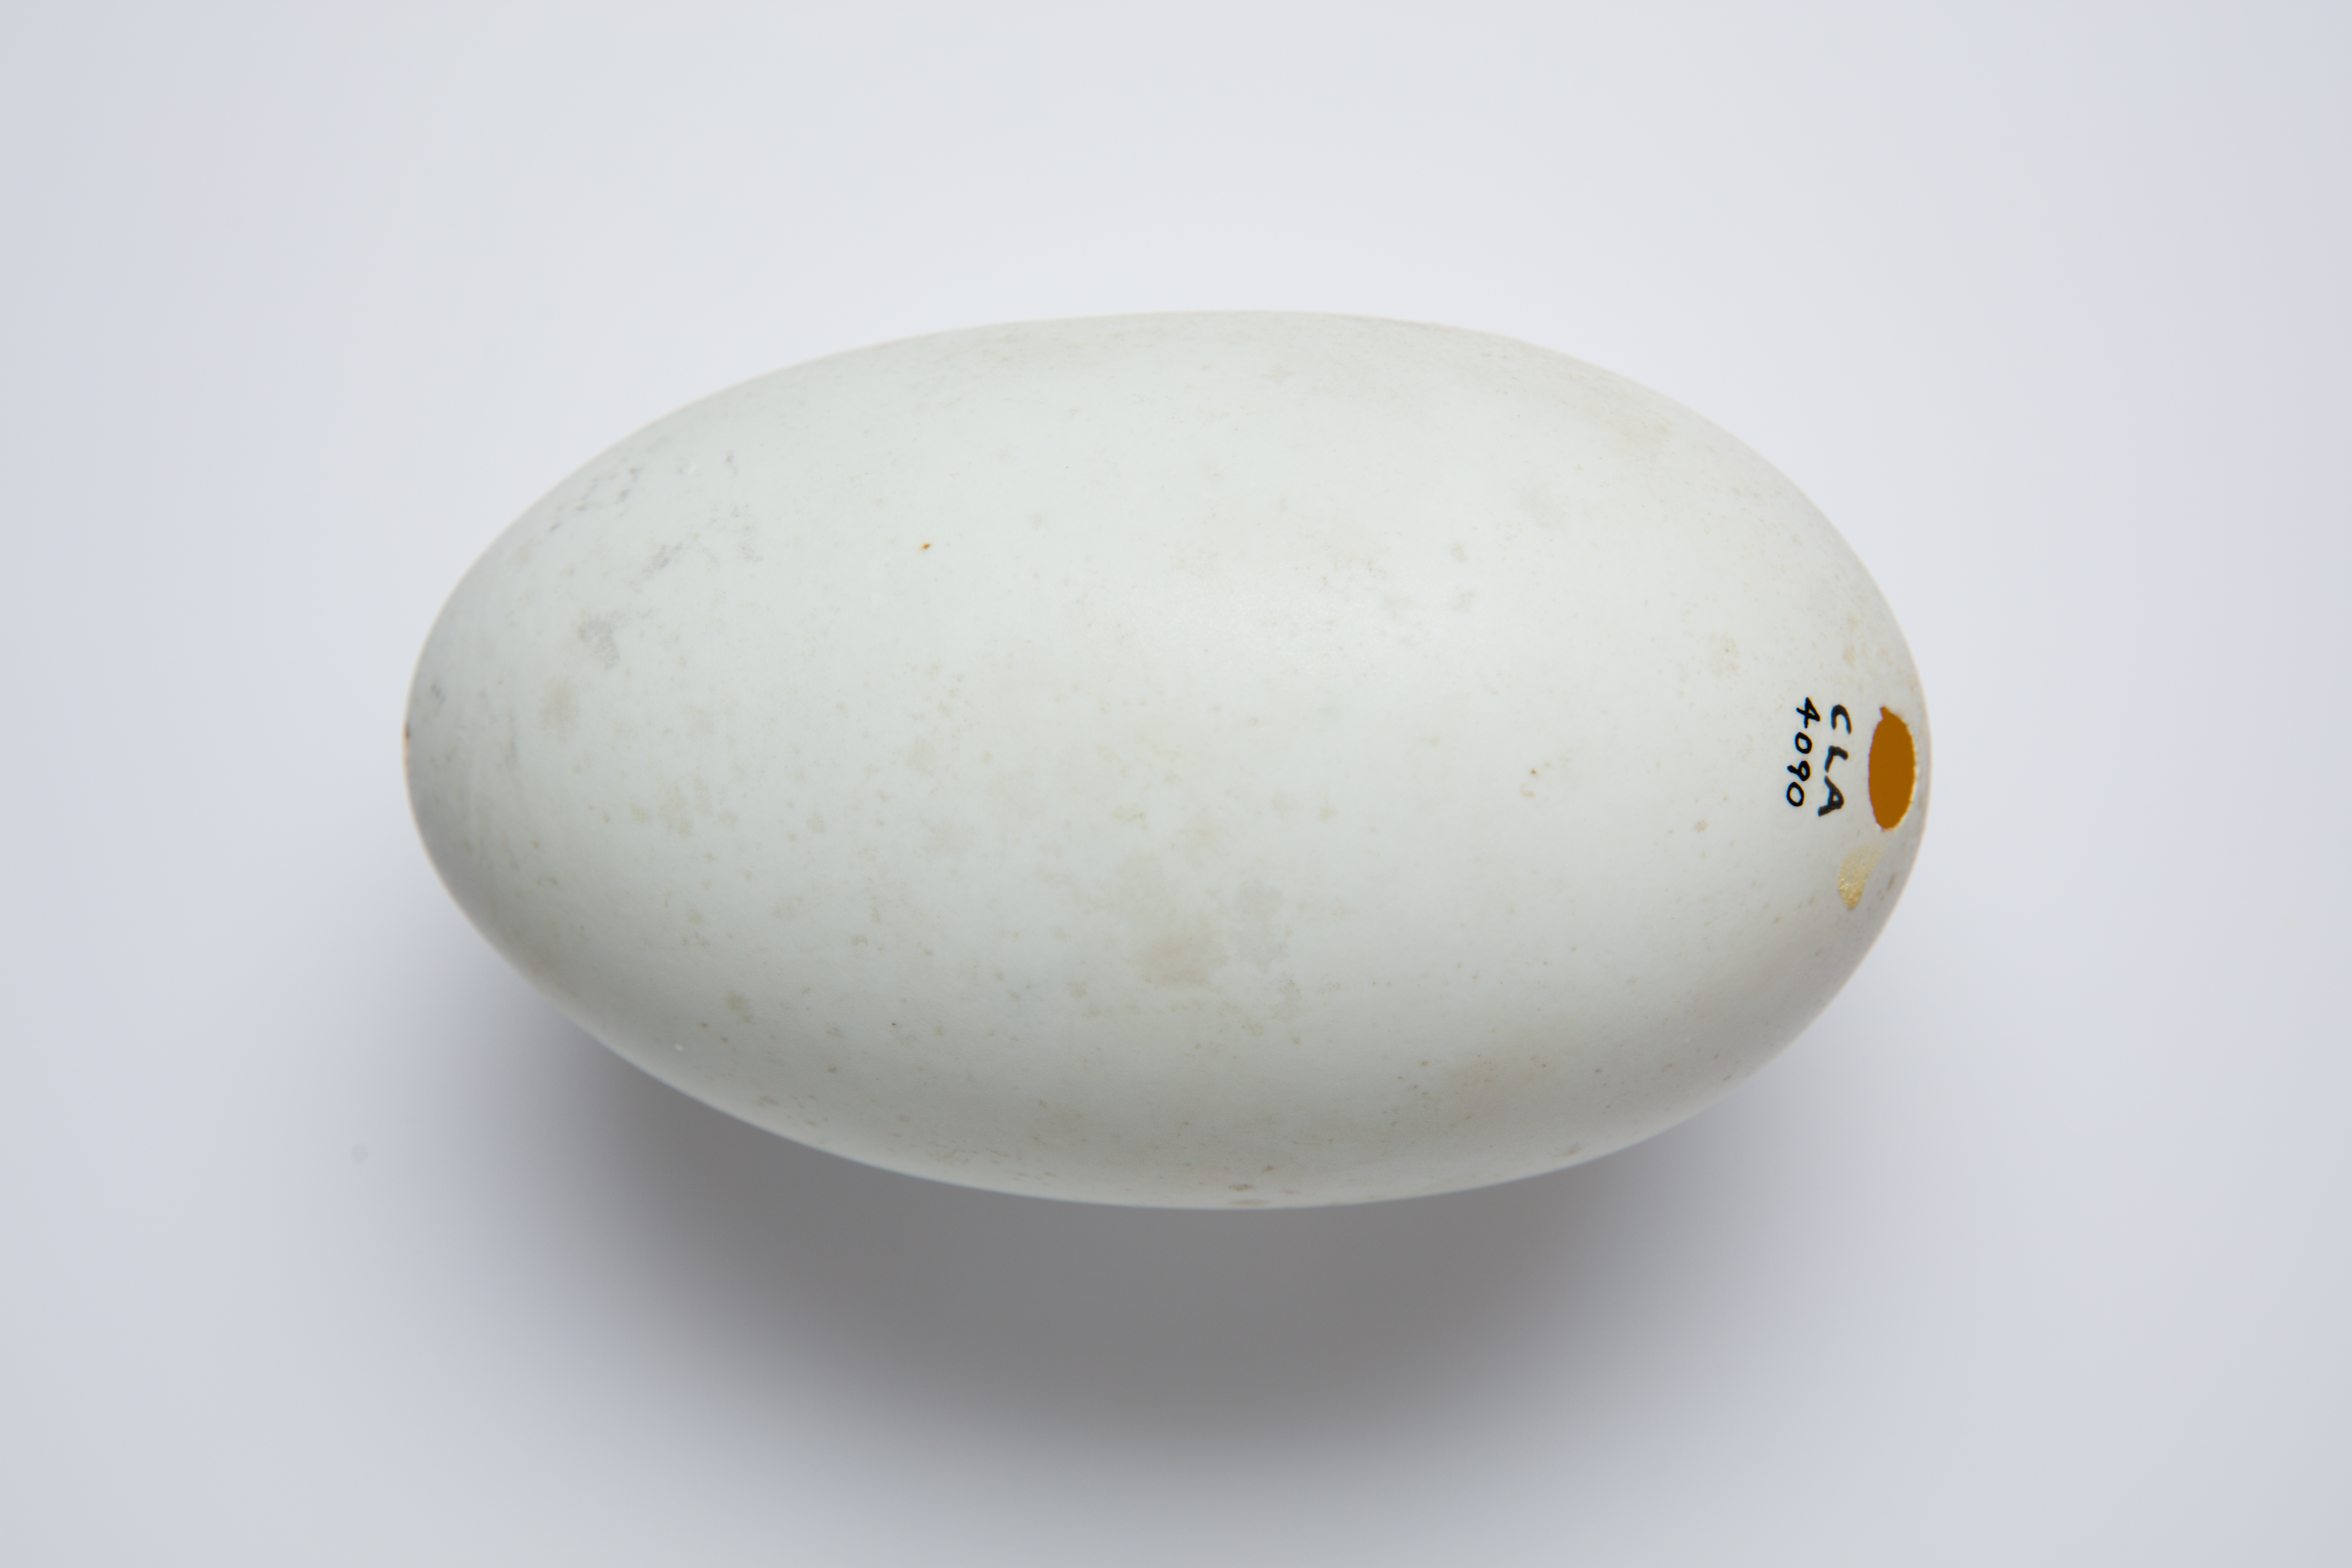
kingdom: Animalia
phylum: Chordata
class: Aves
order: Apterygiformes
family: Apterygidae
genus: Apteryx
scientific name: Apteryx mantelli
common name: North island brown kiwi
